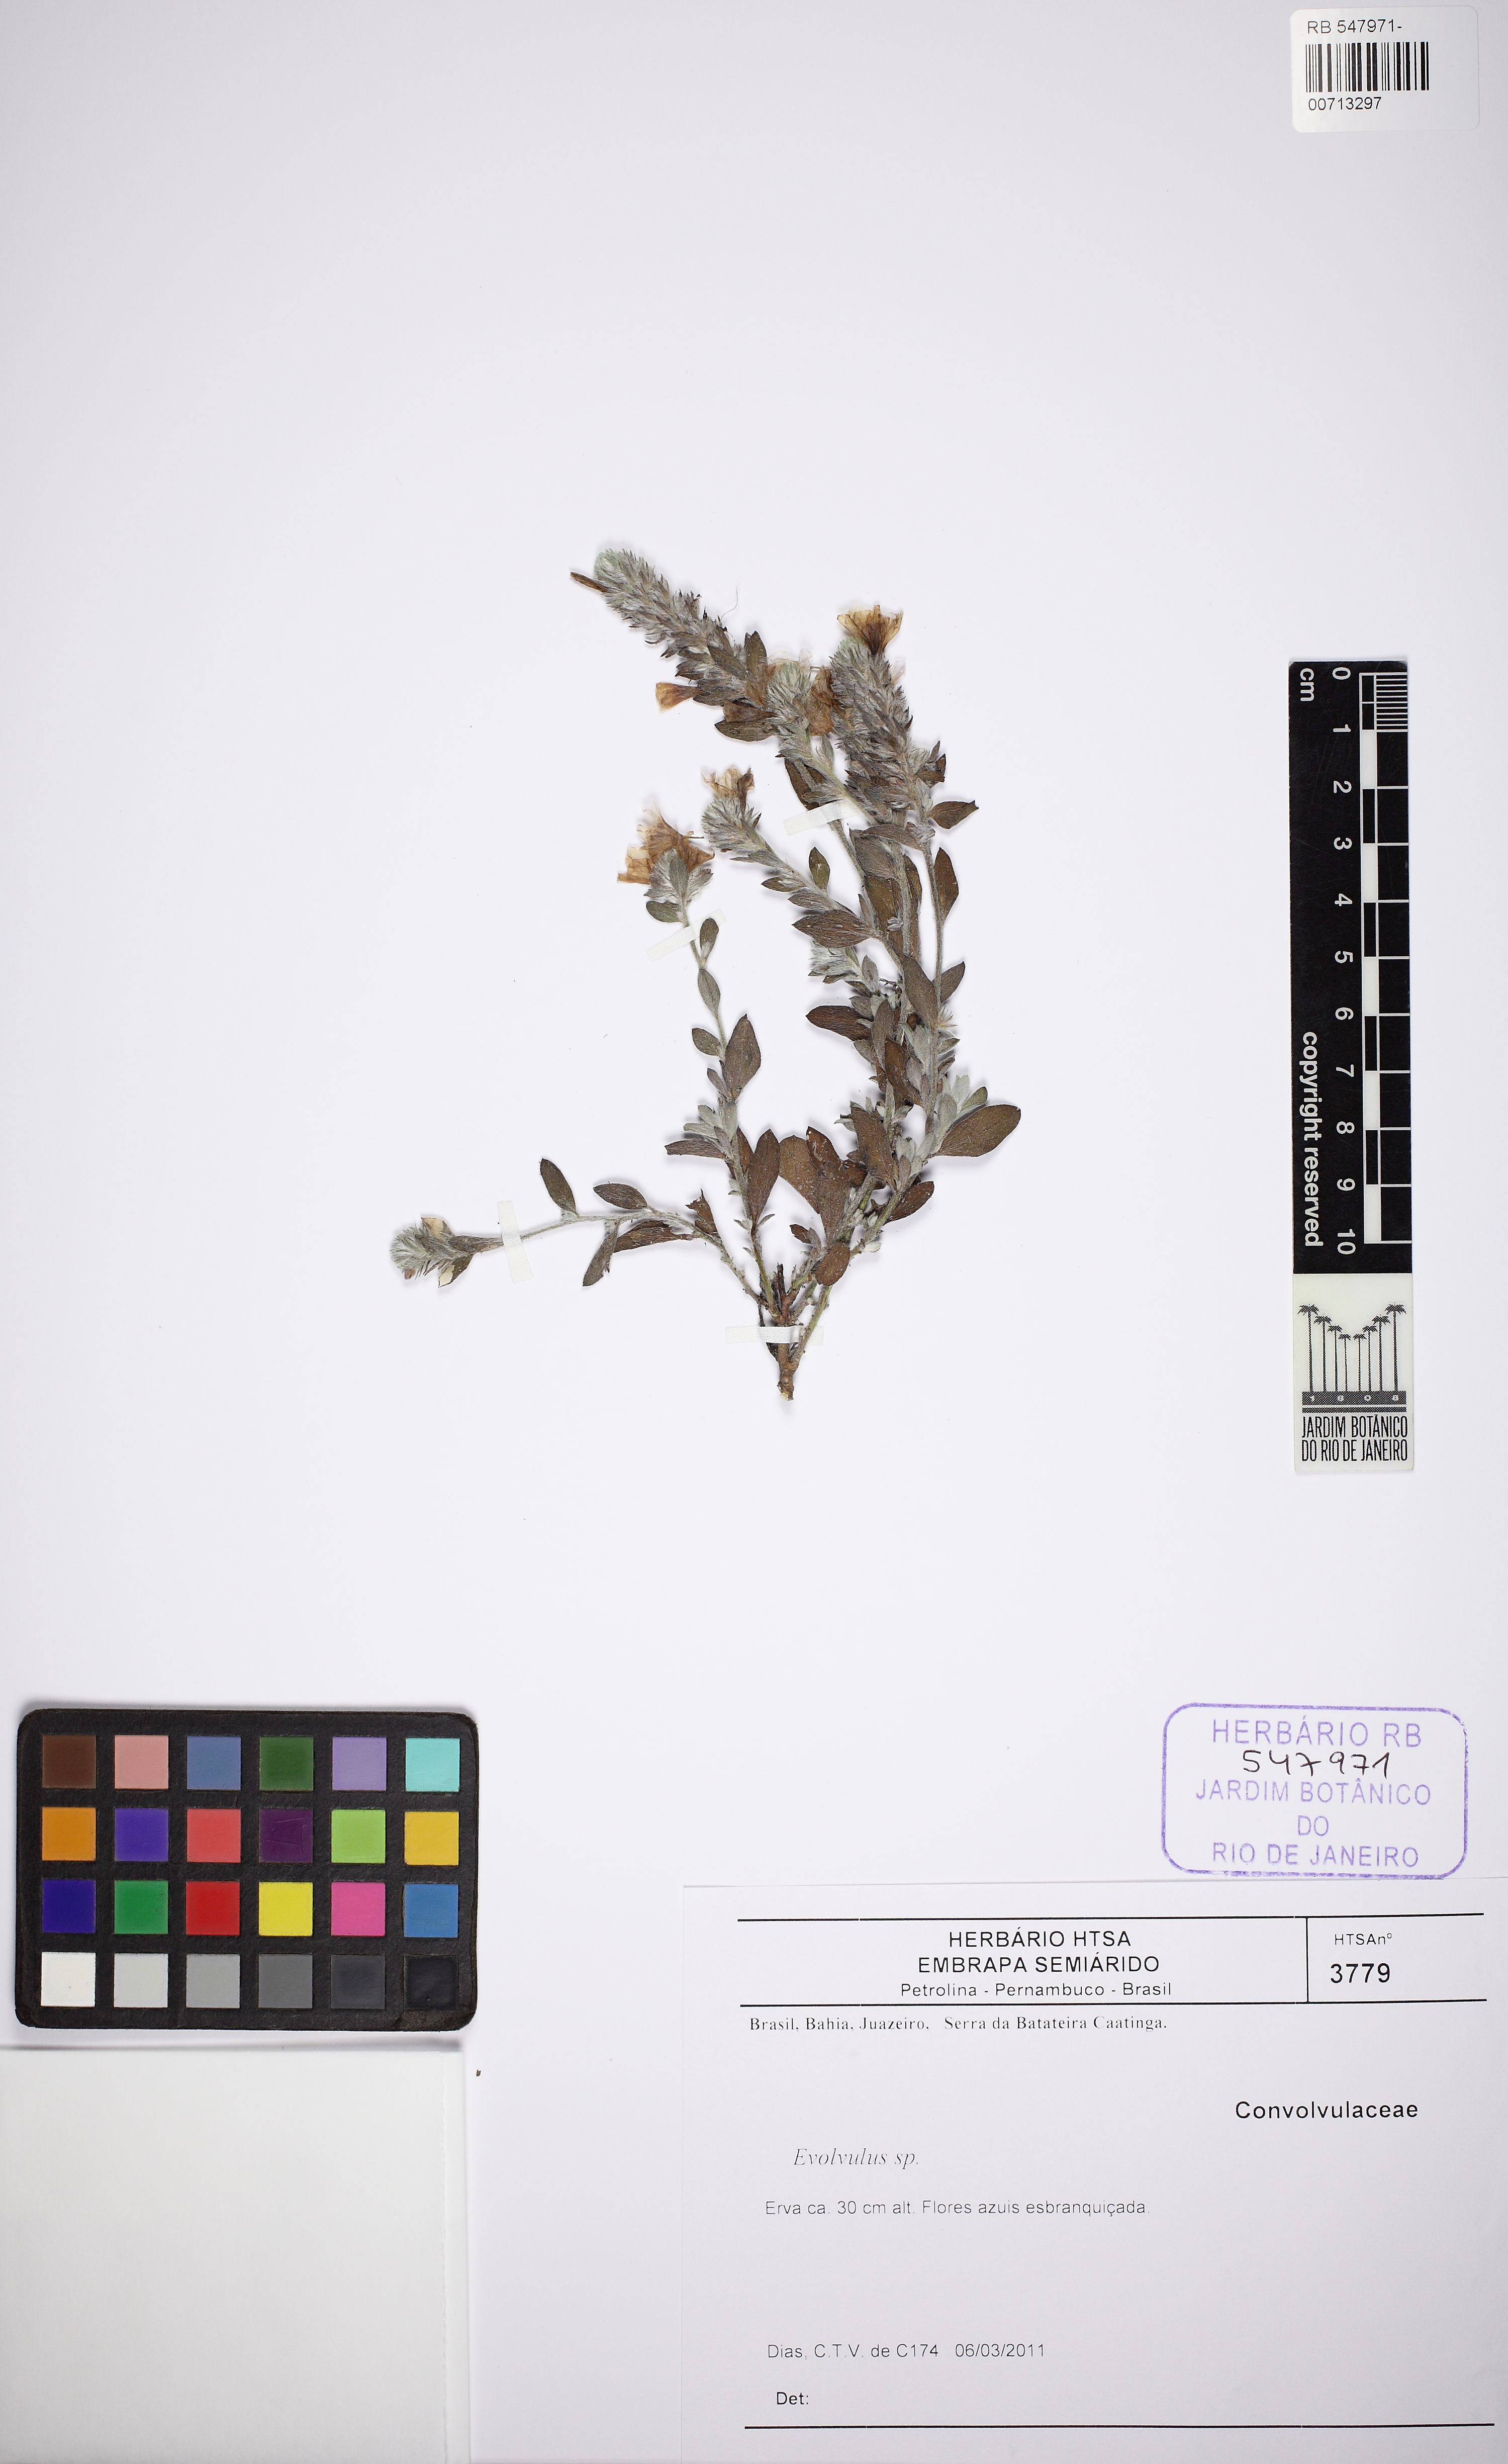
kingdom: Plantae
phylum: Tracheophyta
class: Magnoliopsida
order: Solanales
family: Convolvulaceae
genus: Evolvulus
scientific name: Evolvulus
